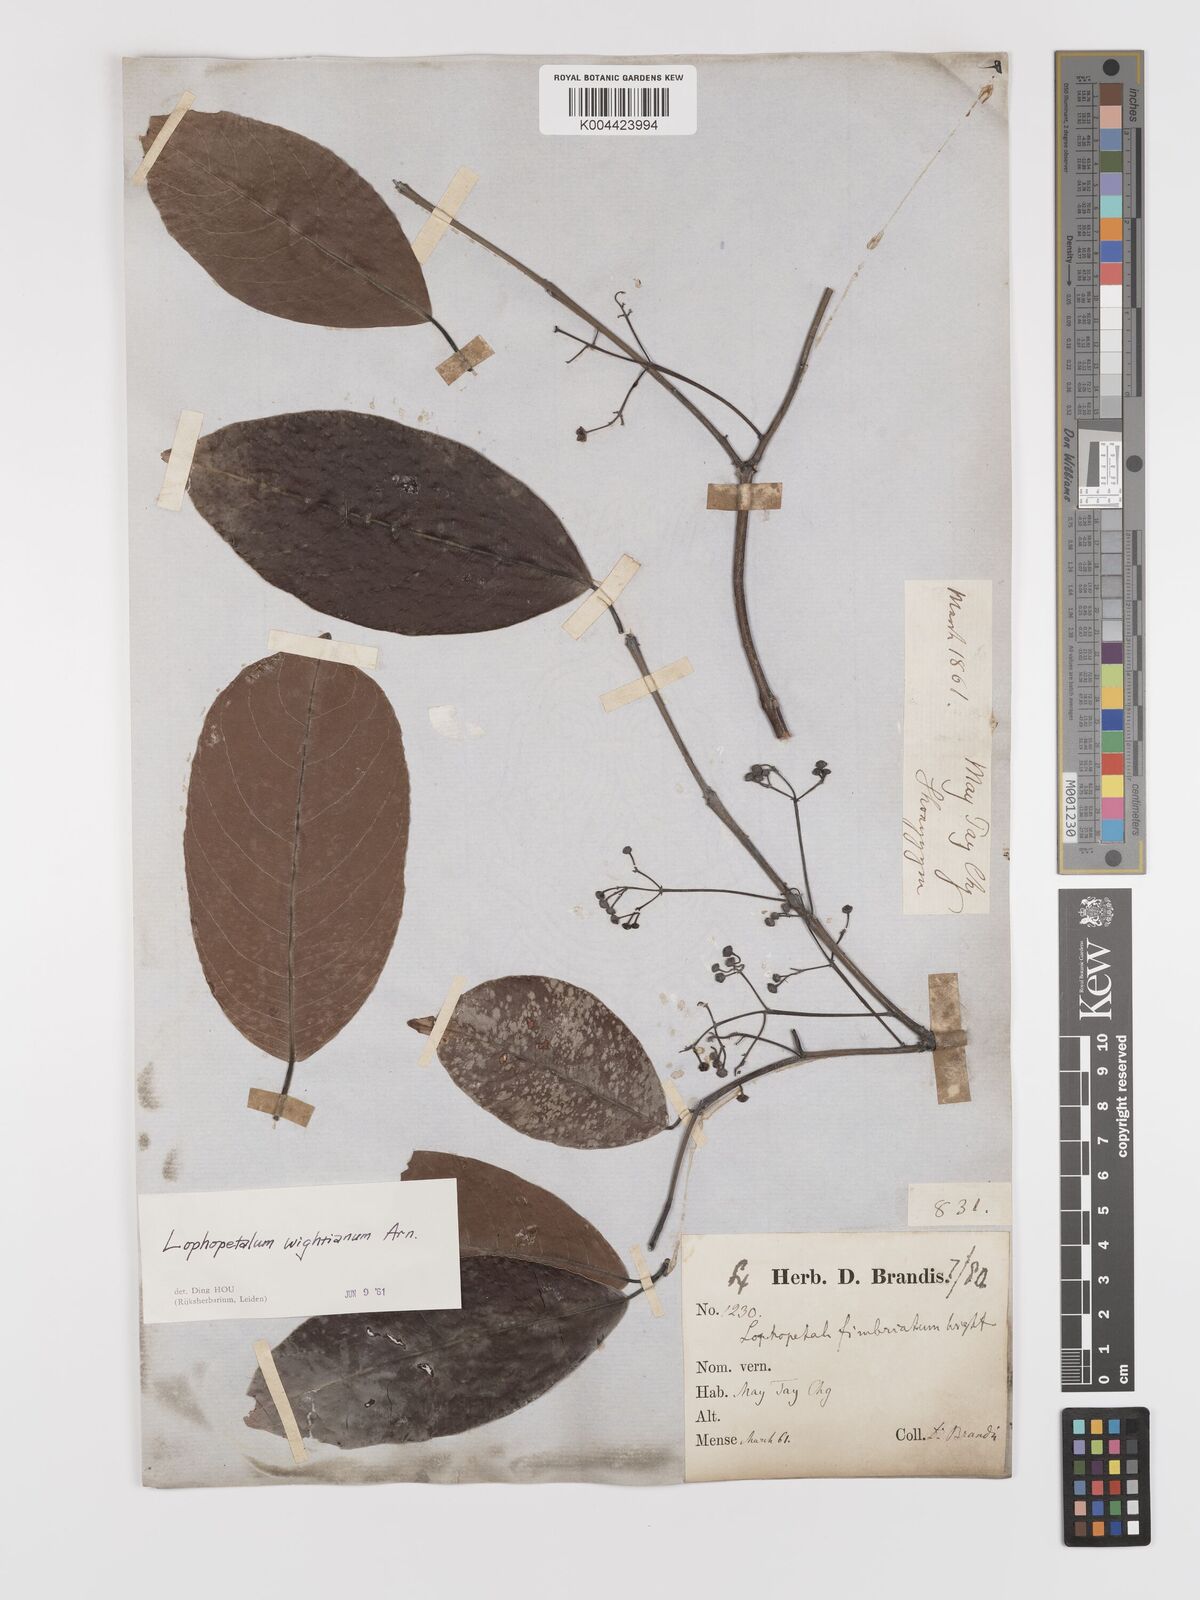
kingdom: Plantae
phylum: Tracheophyta
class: Magnoliopsida
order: Celastrales
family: Celastraceae
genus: Lophopetalum
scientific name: Lophopetalum wightianum
